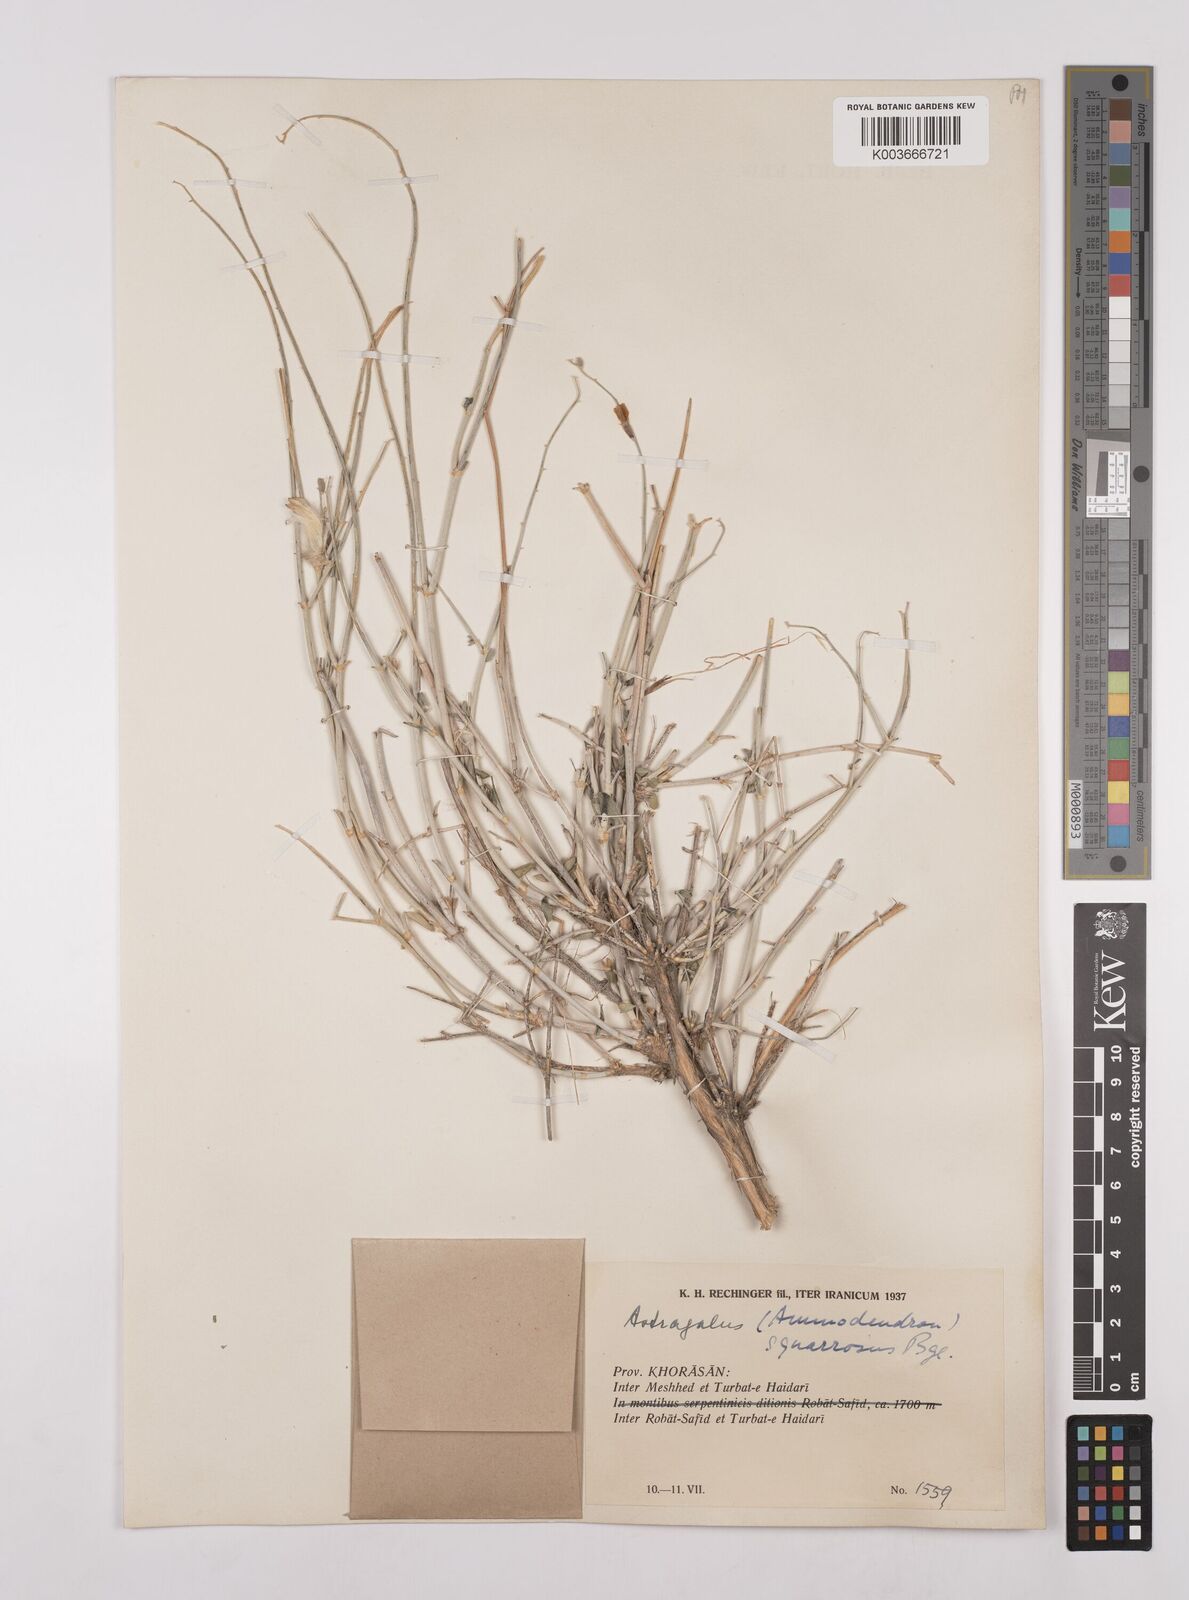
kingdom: Plantae
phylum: Tracheophyta
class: Magnoliopsida
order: Fabales
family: Fabaceae
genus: Astragalus
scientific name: Astragalus squarrosus
